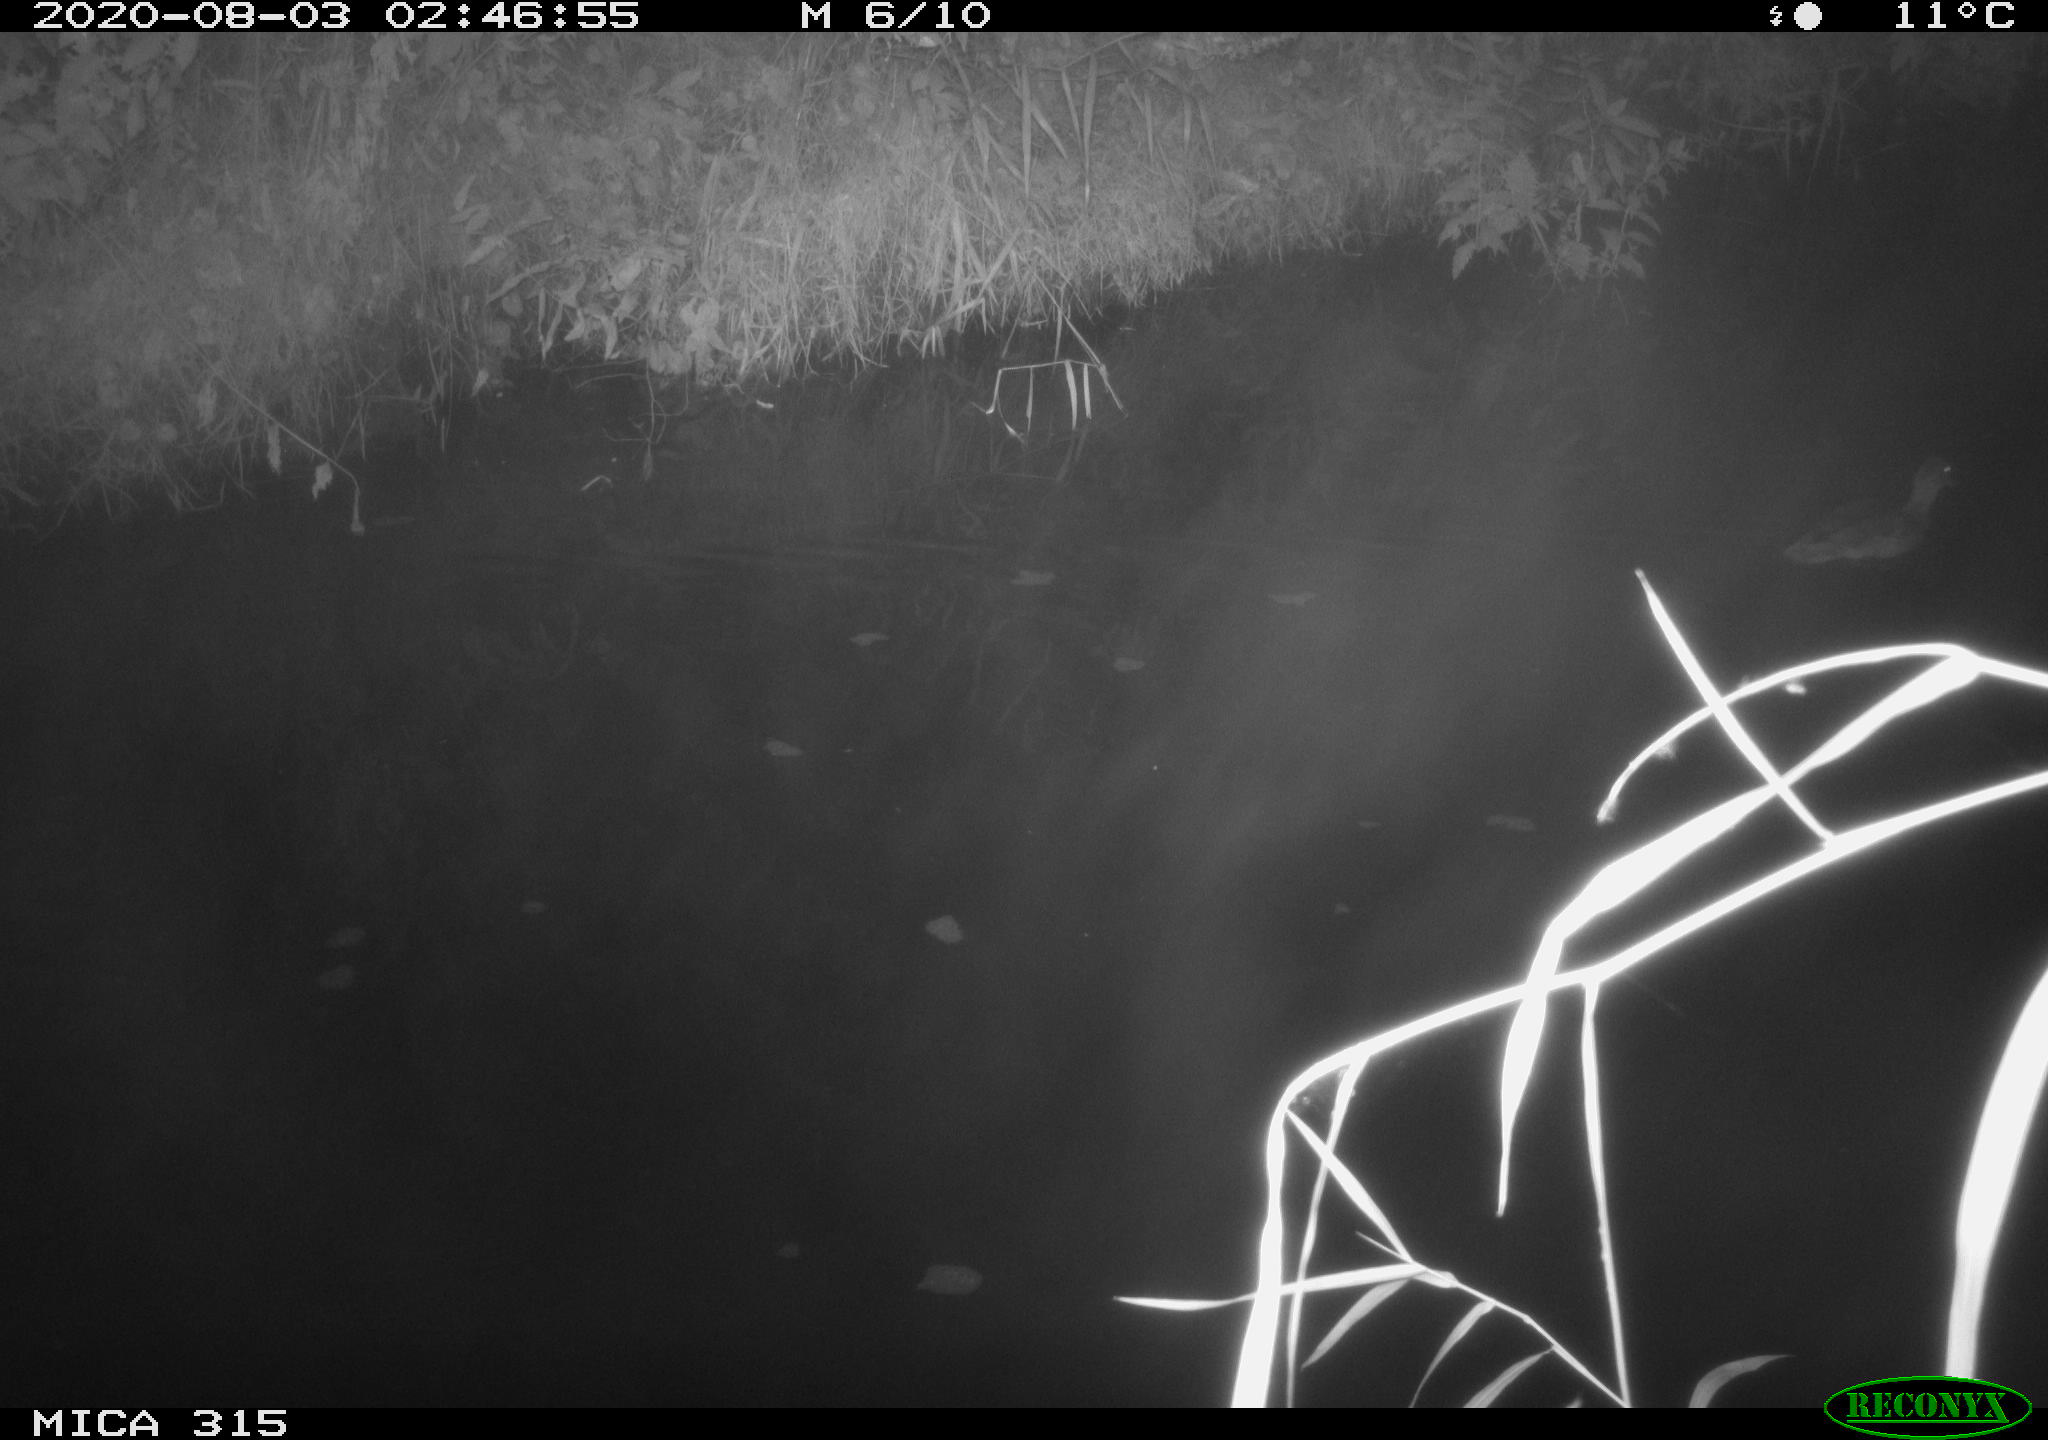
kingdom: Animalia
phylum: Chordata
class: Aves
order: Anseriformes
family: Anatidae
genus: Anas
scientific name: Anas platyrhynchos
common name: Mallard
